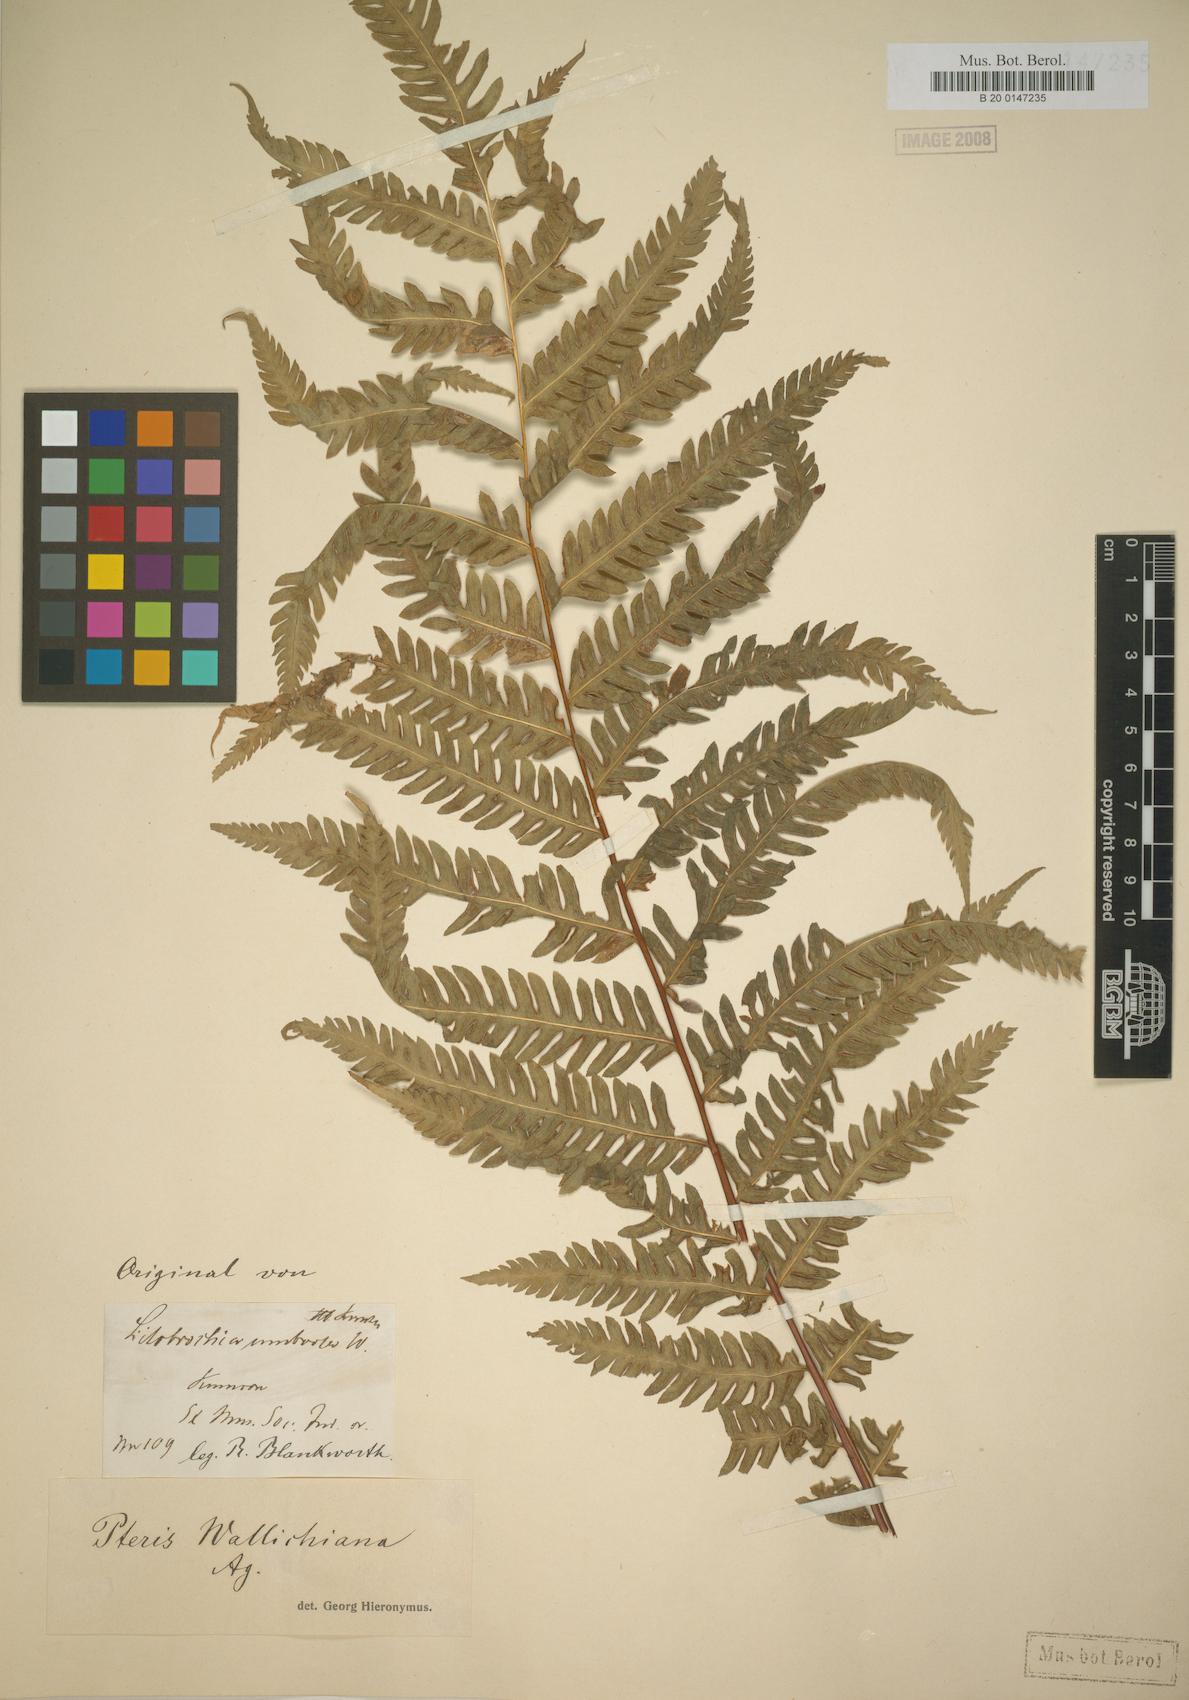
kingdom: Plantae
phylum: Tracheophyta
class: Polypodiopsida
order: Polypodiales
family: Pteridaceae
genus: Pteris
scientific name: Pteris wallichiana
